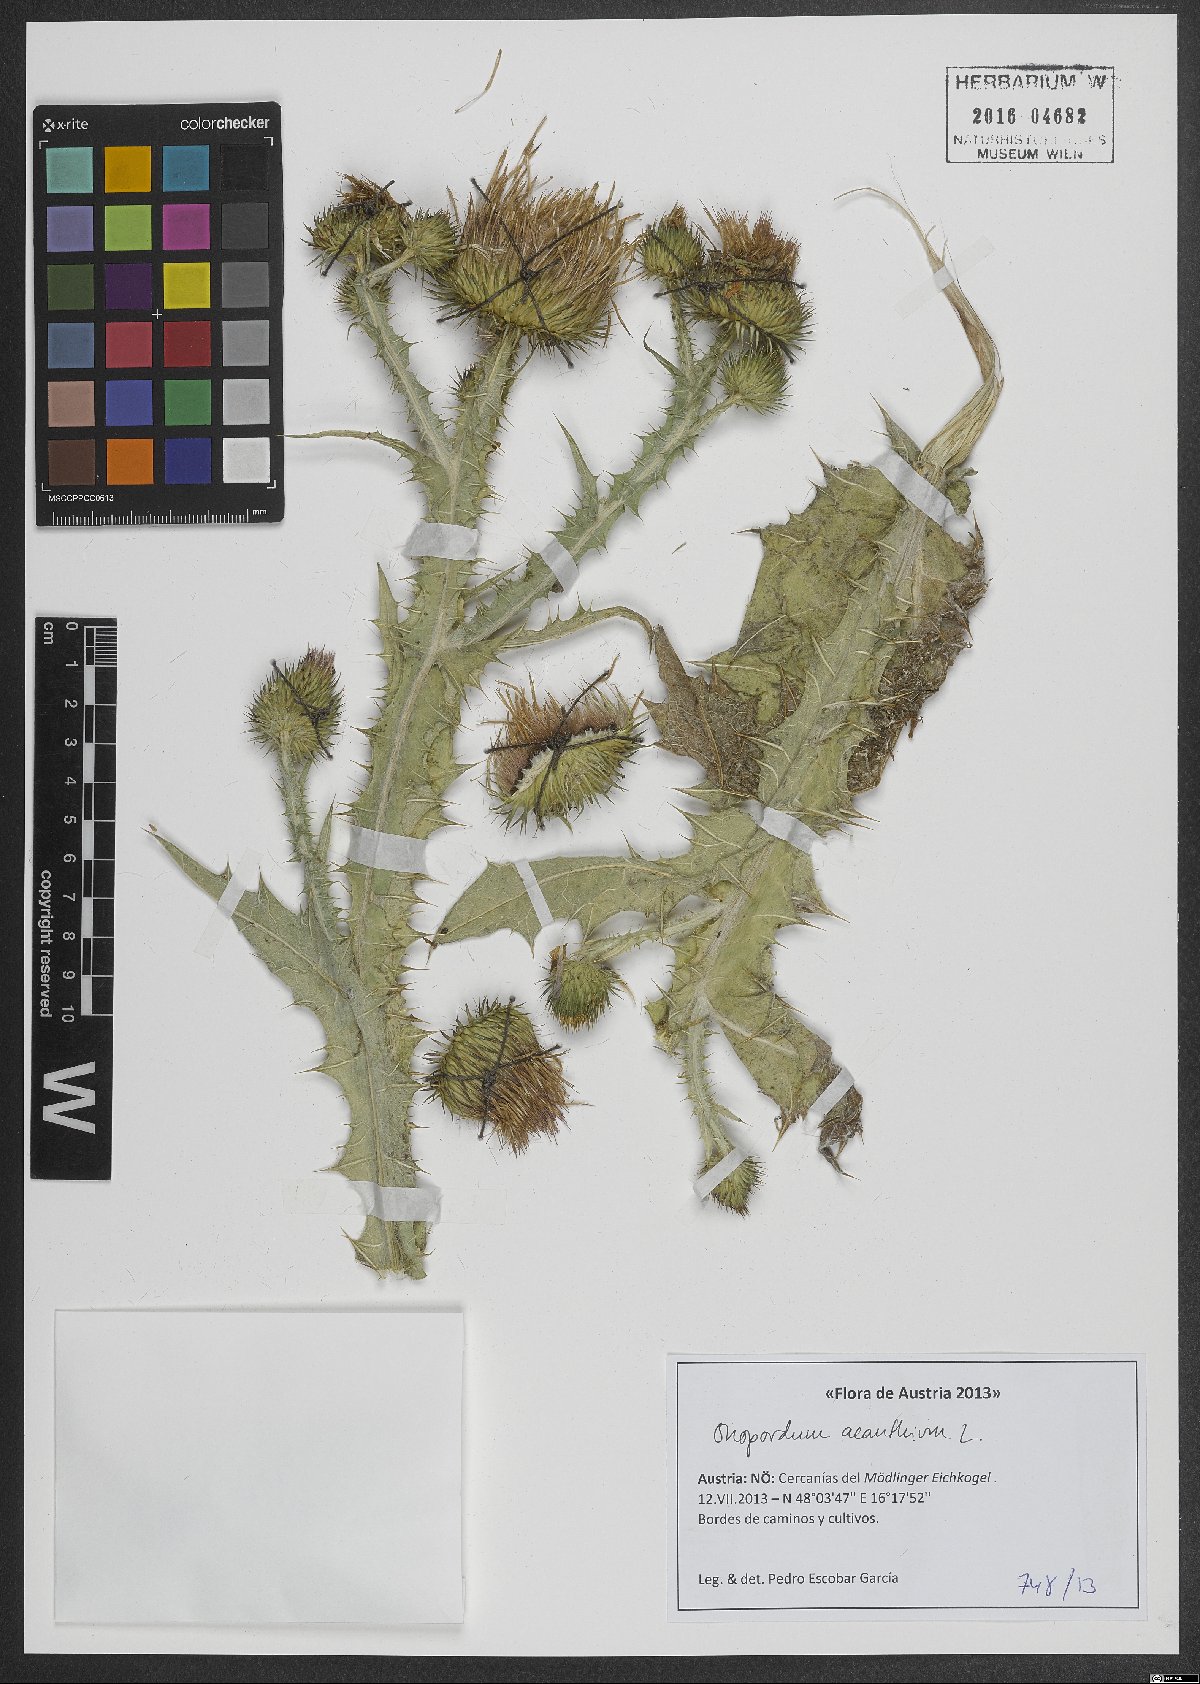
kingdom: Plantae
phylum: Tracheophyta
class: Magnoliopsida
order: Asterales
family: Asteraceae
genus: Onopordum
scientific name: Onopordum acanthium
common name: Scotch thistle
